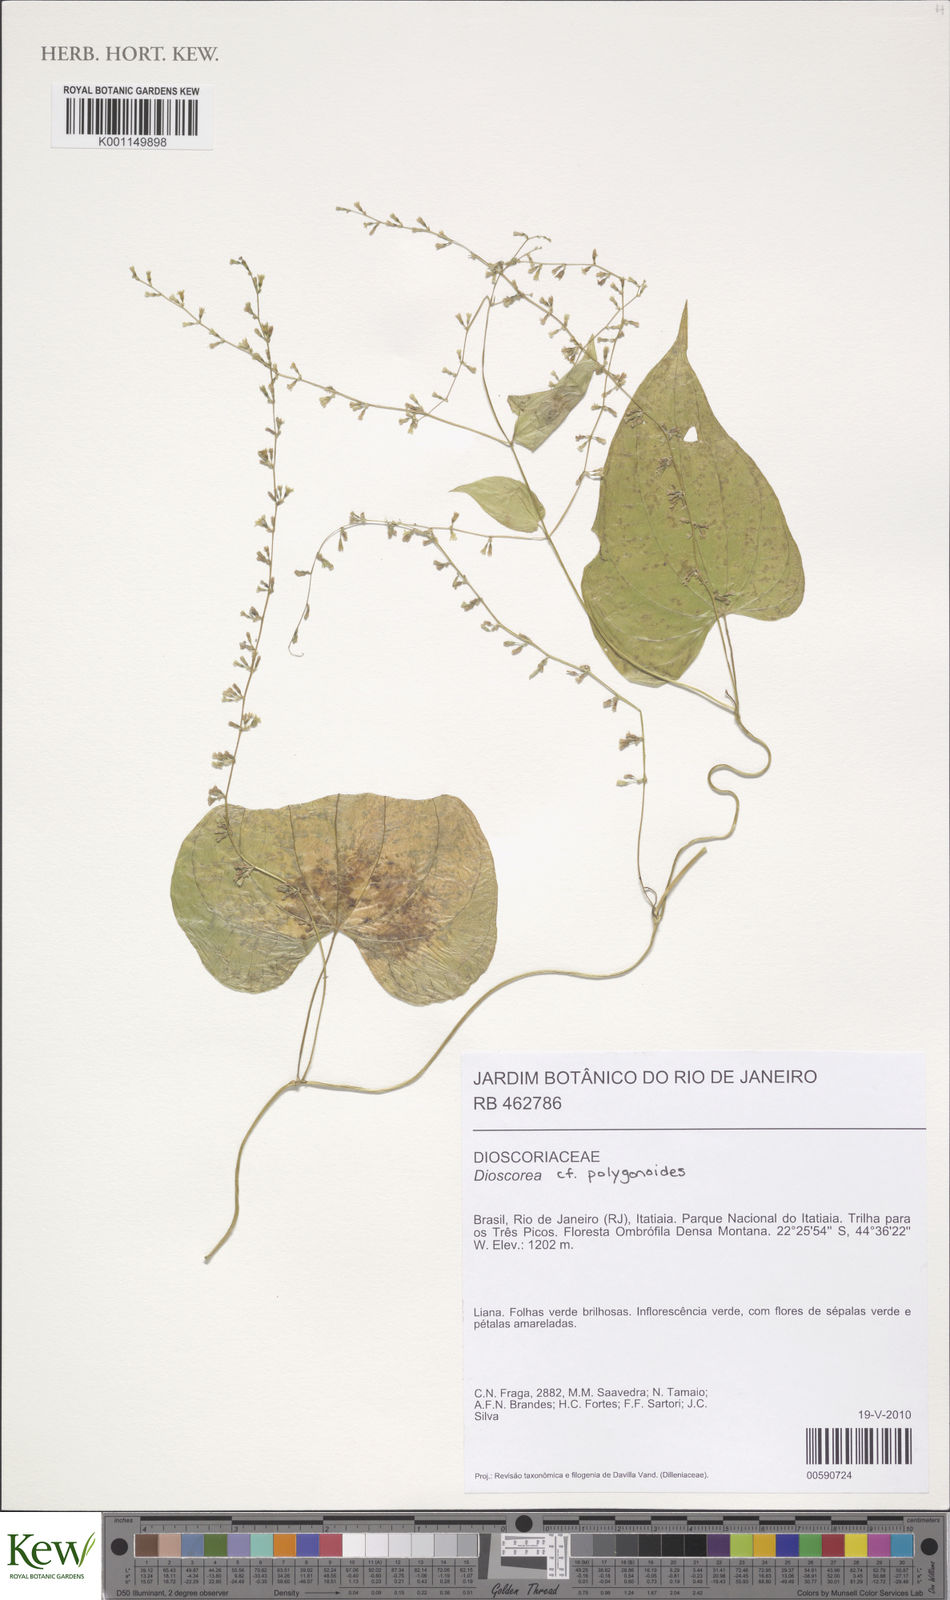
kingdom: Plantae
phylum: Tracheophyta
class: Liliopsida
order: Dioscoreales
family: Dioscoreaceae
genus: Dioscorea
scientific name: Dioscorea bradei
